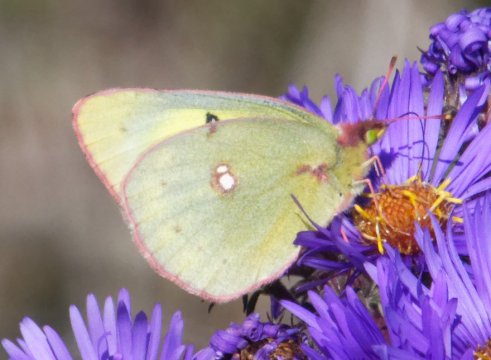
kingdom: Animalia
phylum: Arthropoda
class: Insecta
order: Lepidoptera
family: Pieridae
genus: Colias
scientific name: Colias philodice
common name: Clouded Sulphur
